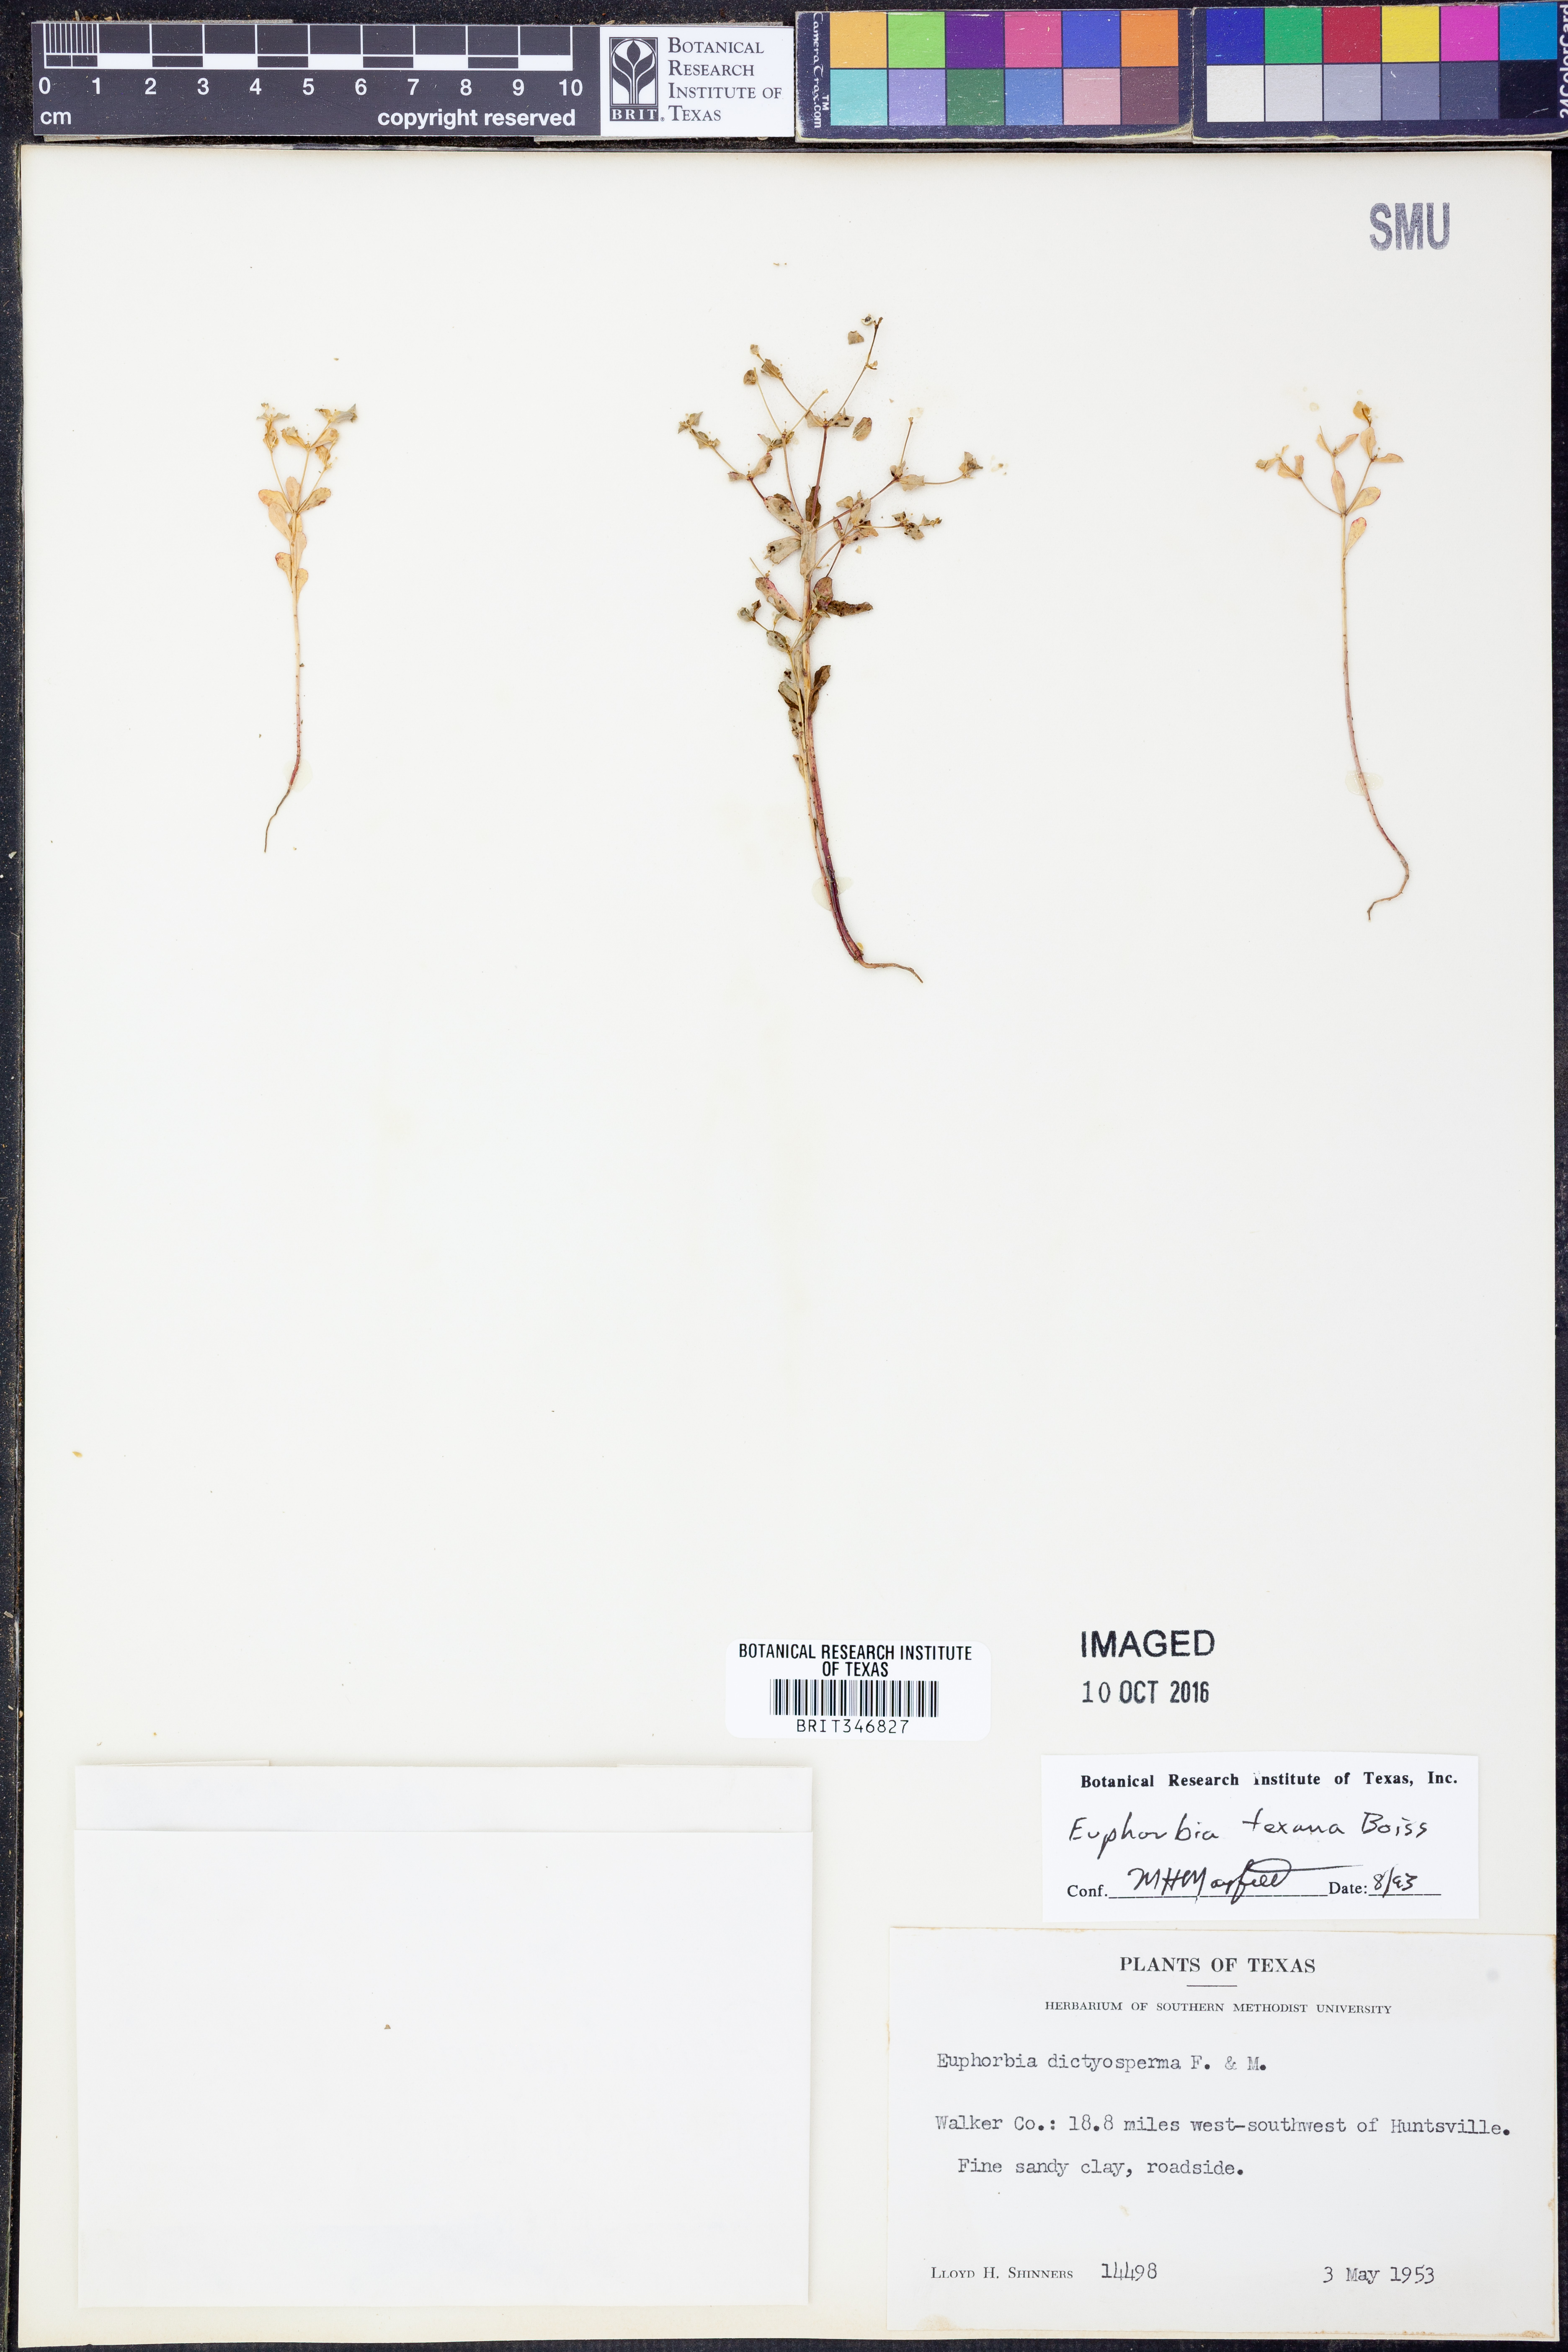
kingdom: Plantae
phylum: Tracheophyta
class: Magnoliopsida
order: Malpighiales
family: Euphorbiaceae
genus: Euphorbia
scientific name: Euphorbia texana
